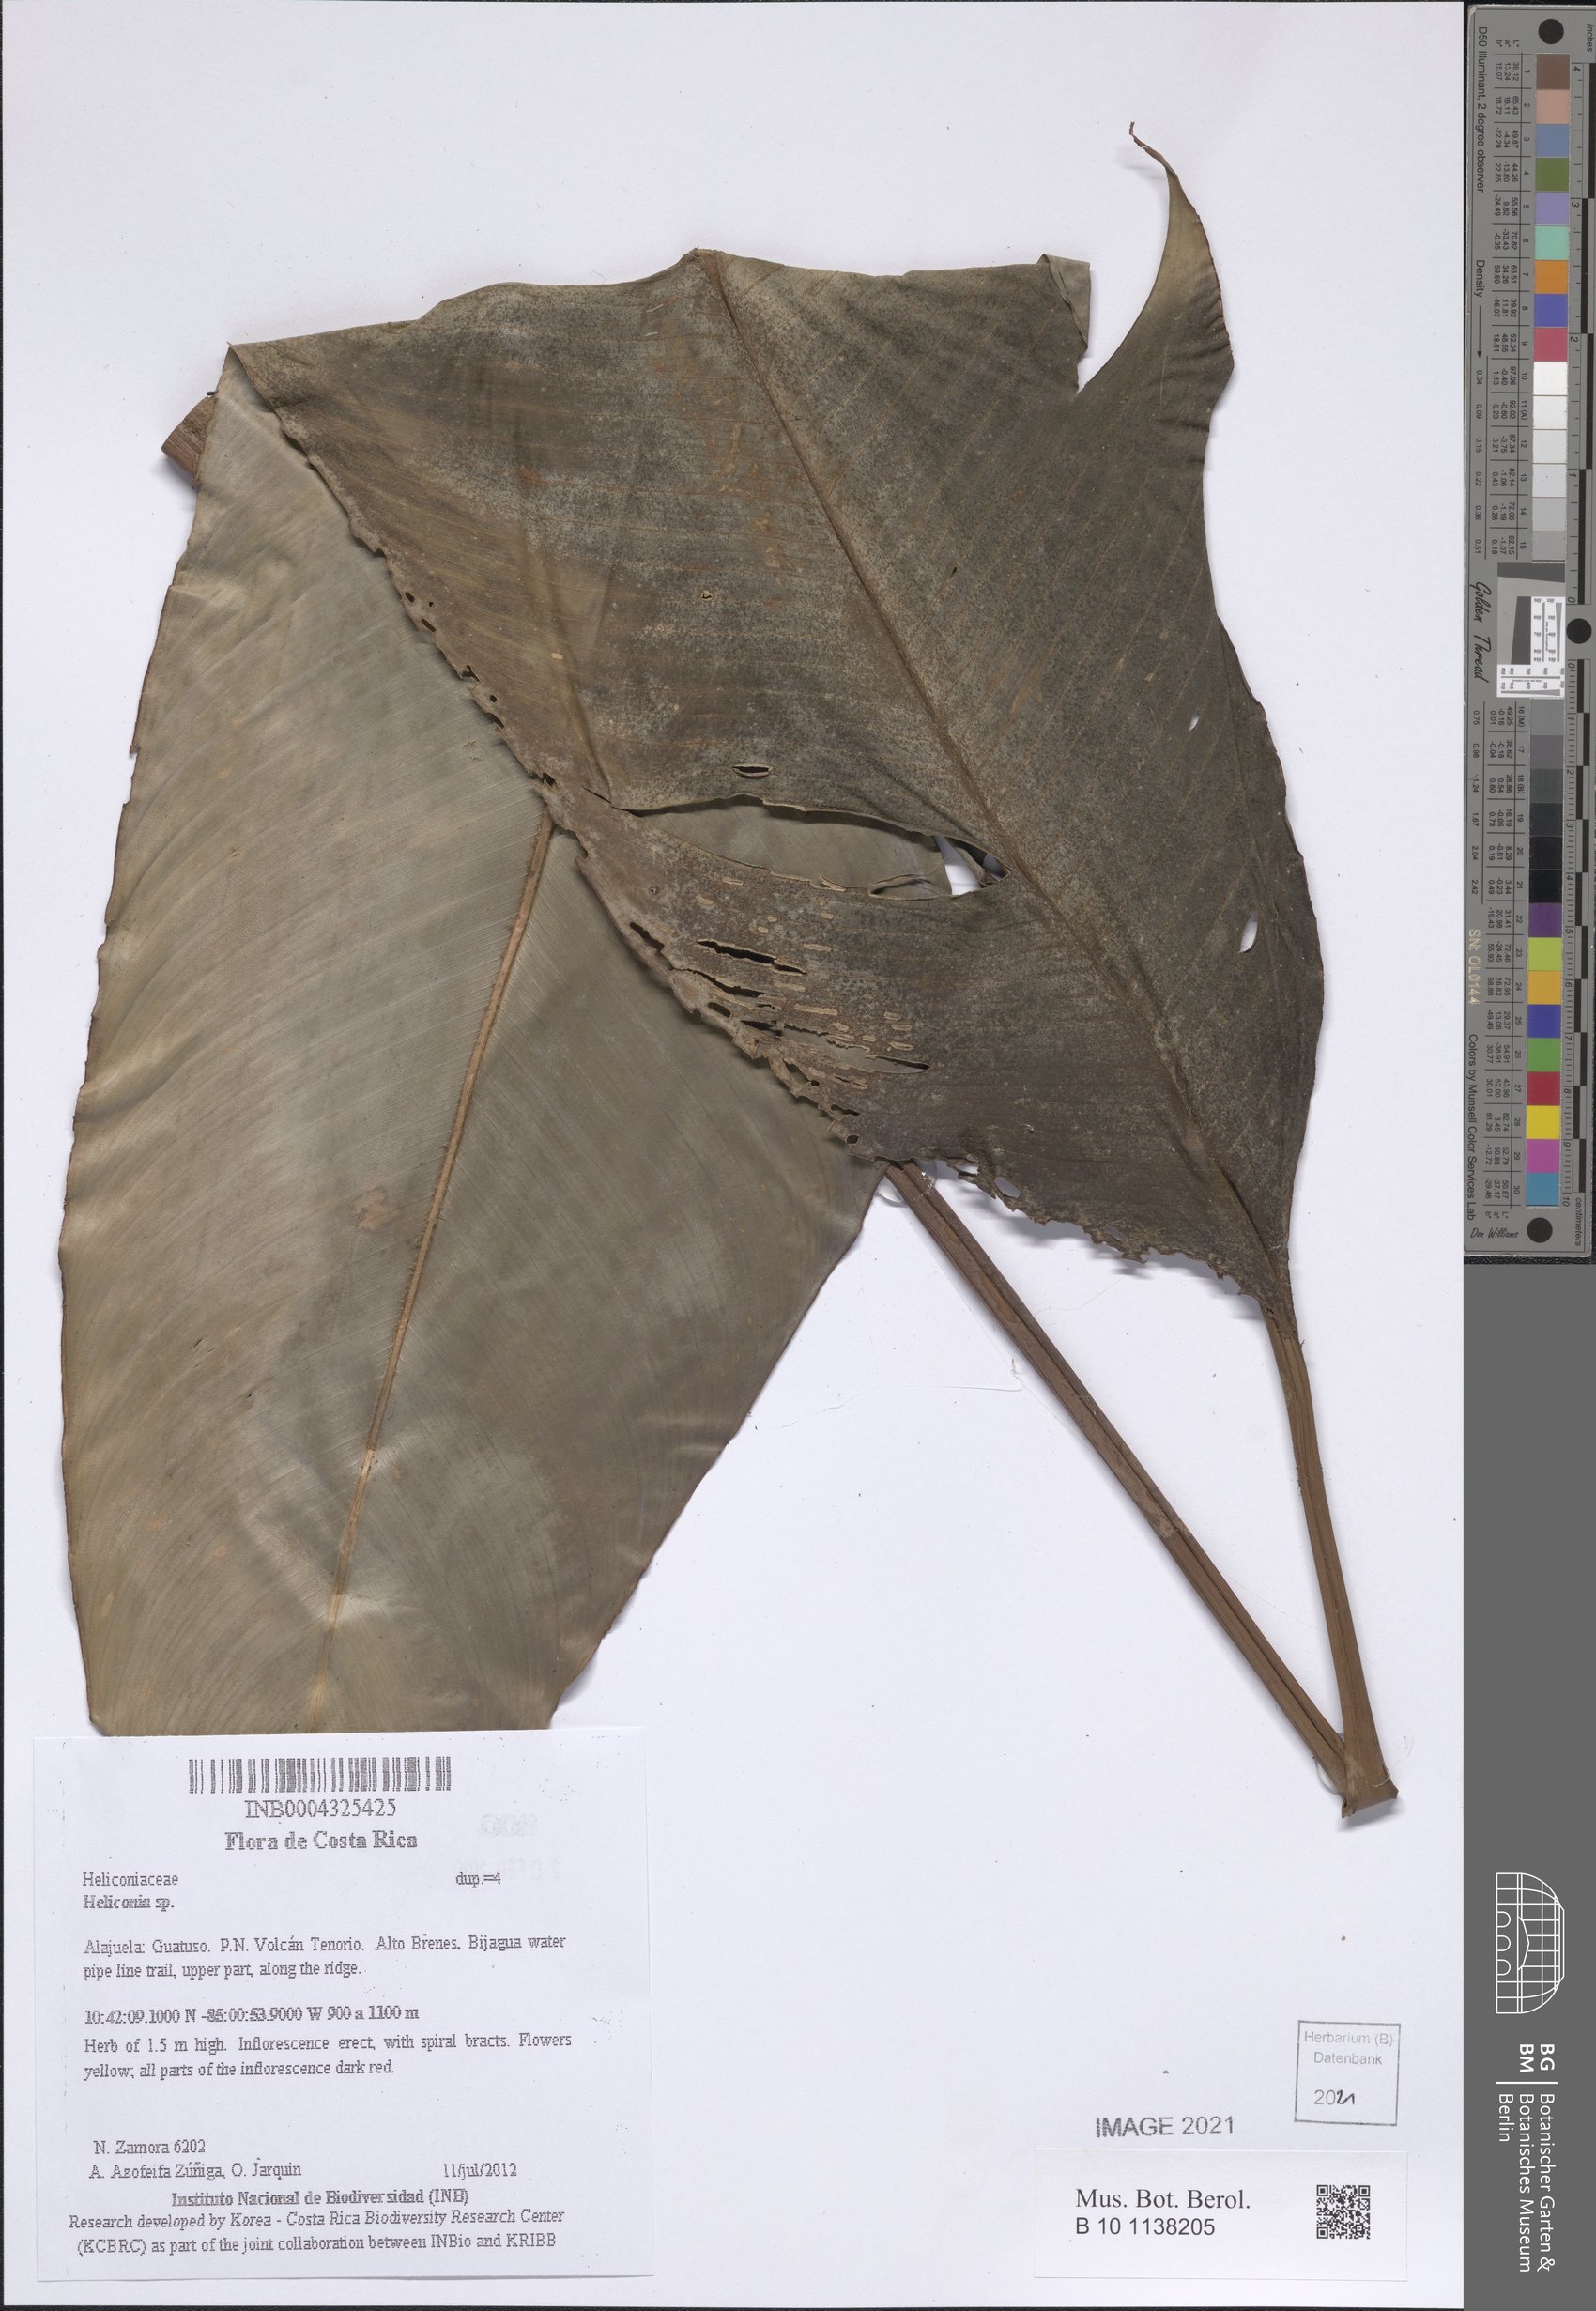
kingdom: Plantae
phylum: Tracheophyta
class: Liliopsida
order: Zingiberales
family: Heliconiaceae
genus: Heliconia
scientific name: Heliconia
